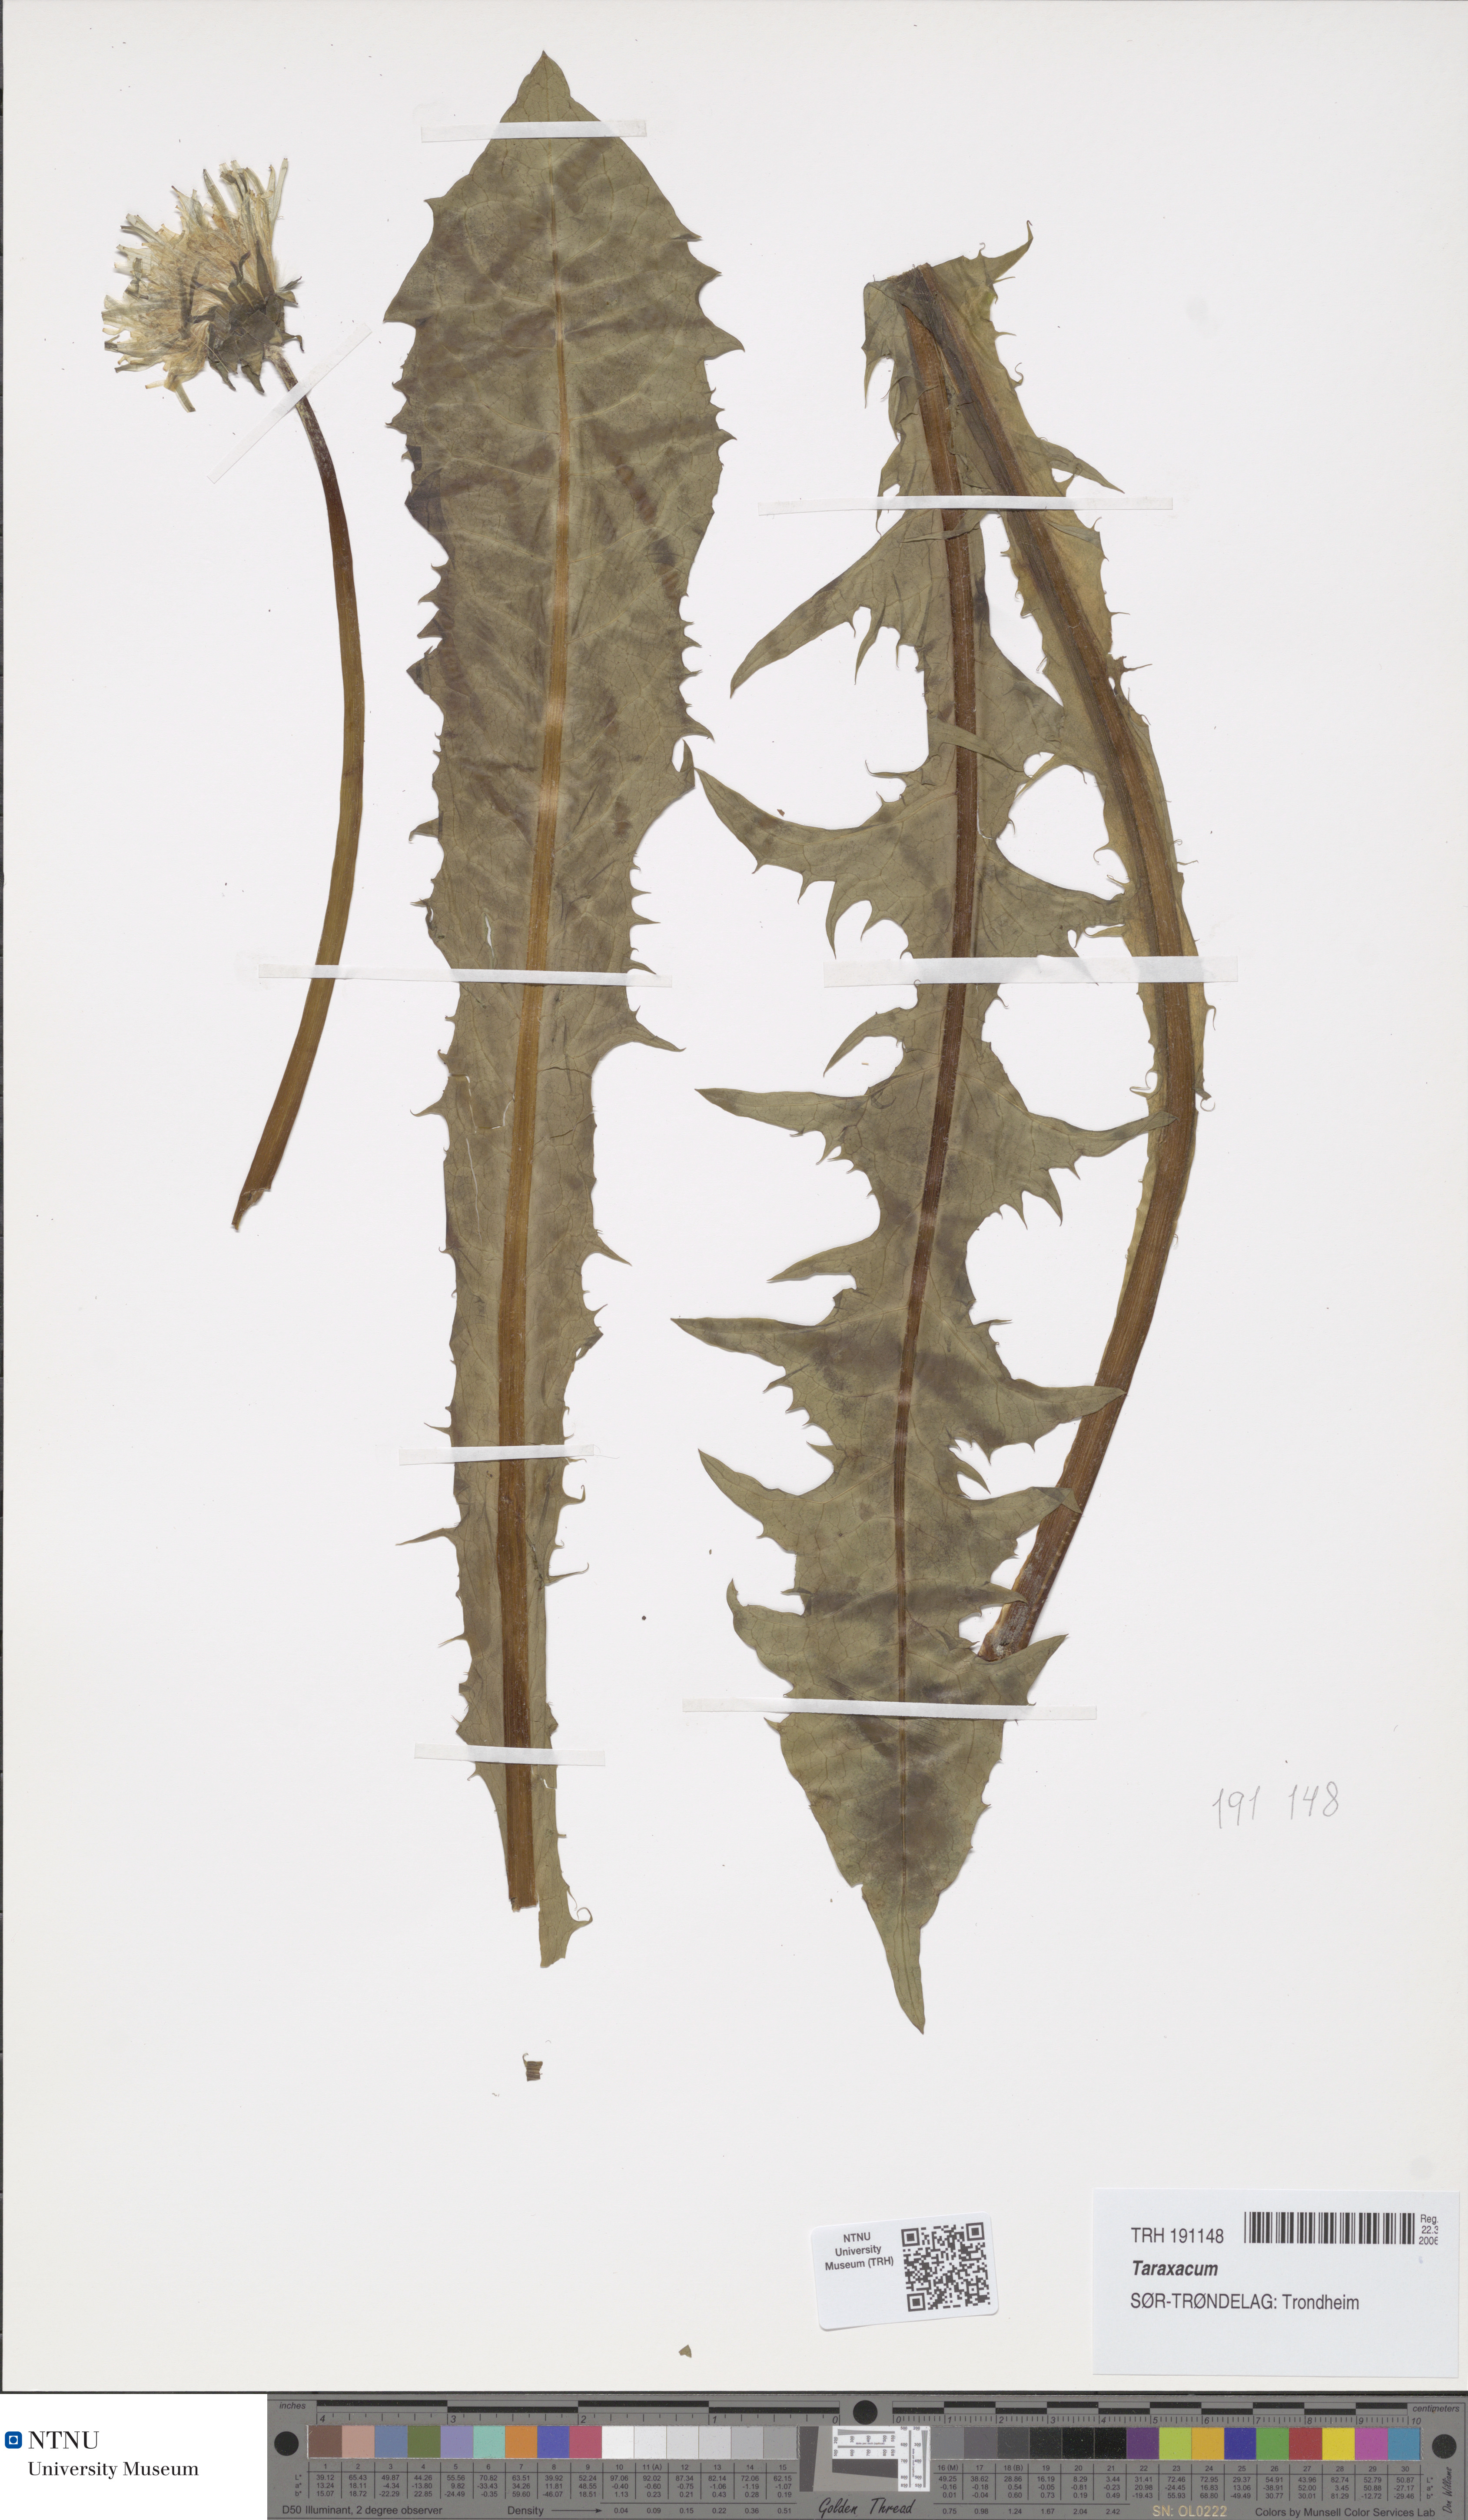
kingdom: Plantae
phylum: Tracheophyta
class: Magnoliopsida
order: Asterales
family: Asteraceae
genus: Taraxacum
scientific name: Taraxacum
